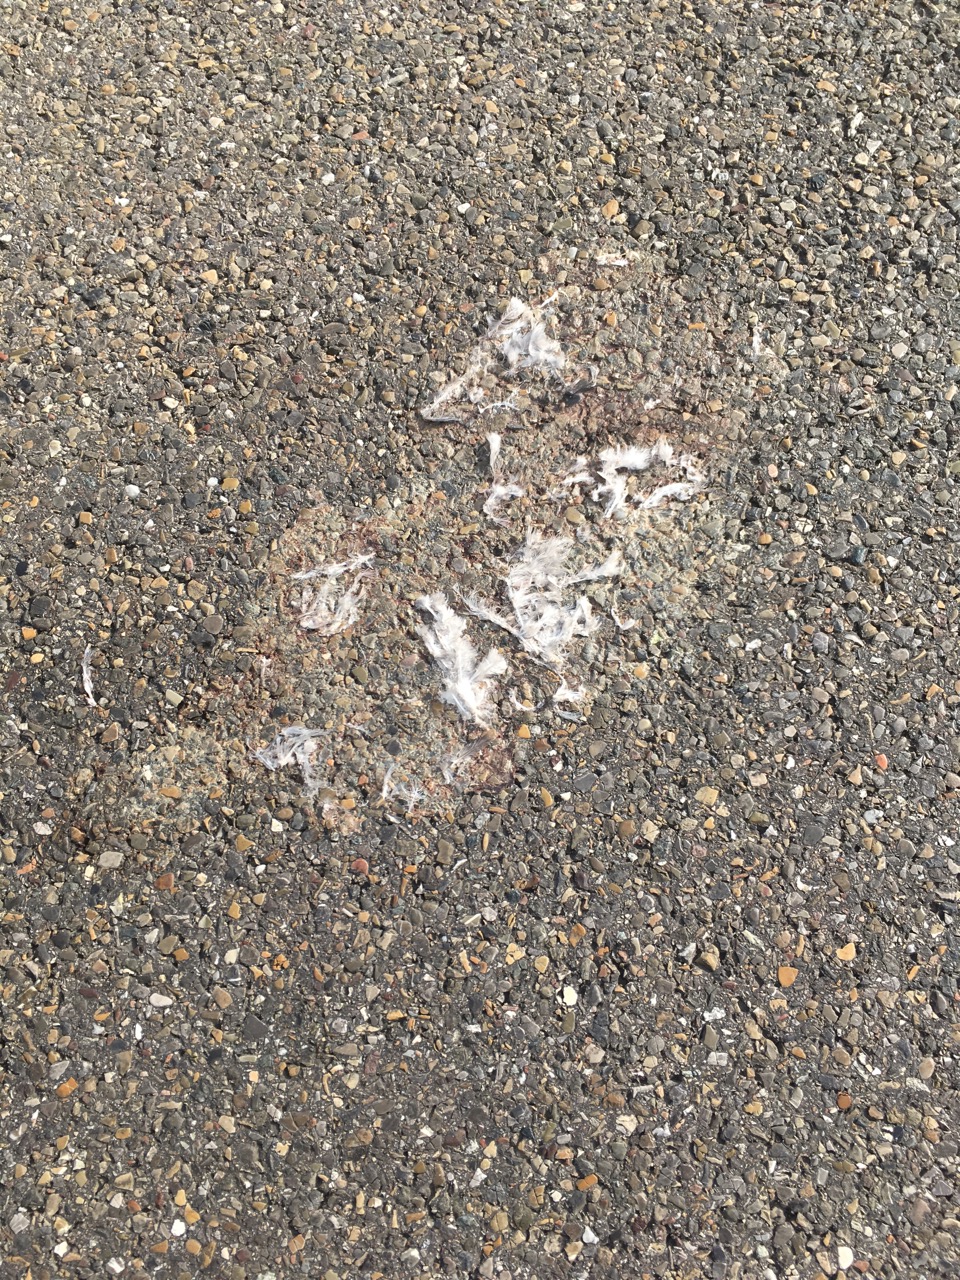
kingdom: Animalia
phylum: Chordata
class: Aves
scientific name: Aves
